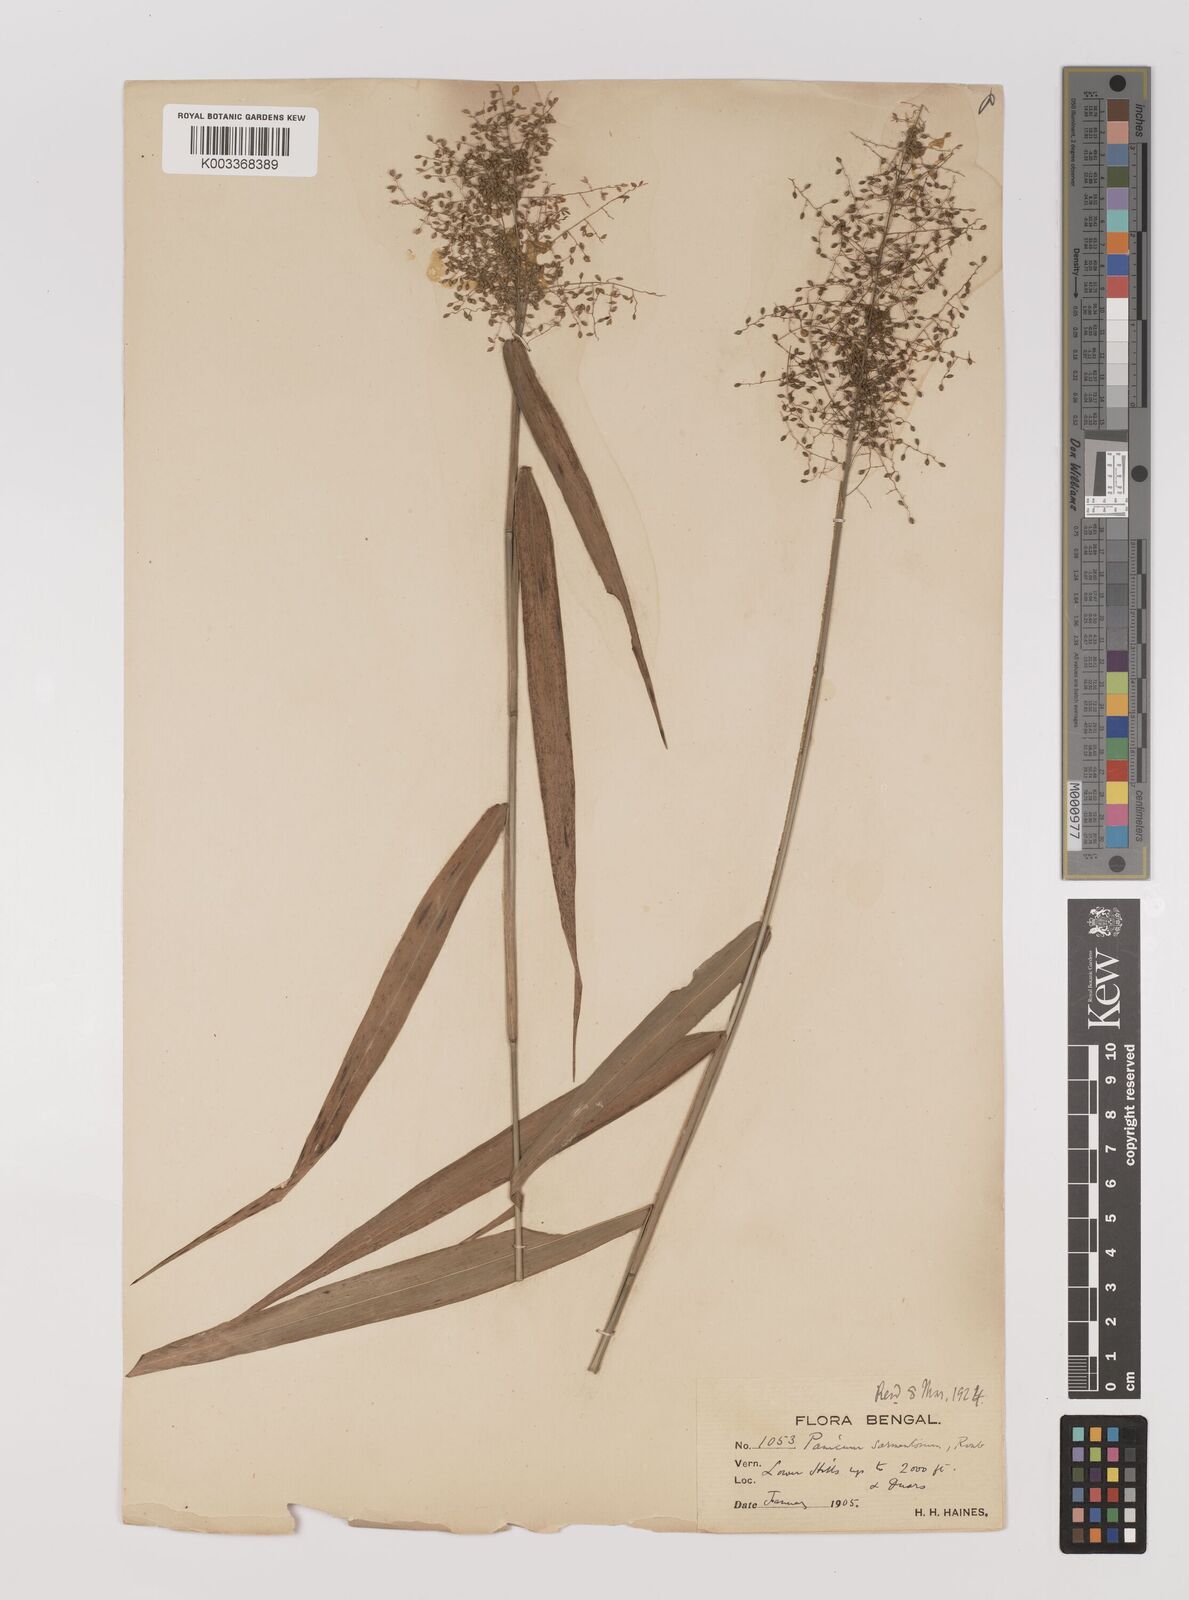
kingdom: Plantae
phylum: Tracheophyta
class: Liliopsida
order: Poales
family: Poaceae
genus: Panicum
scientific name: Panicum incomtum
